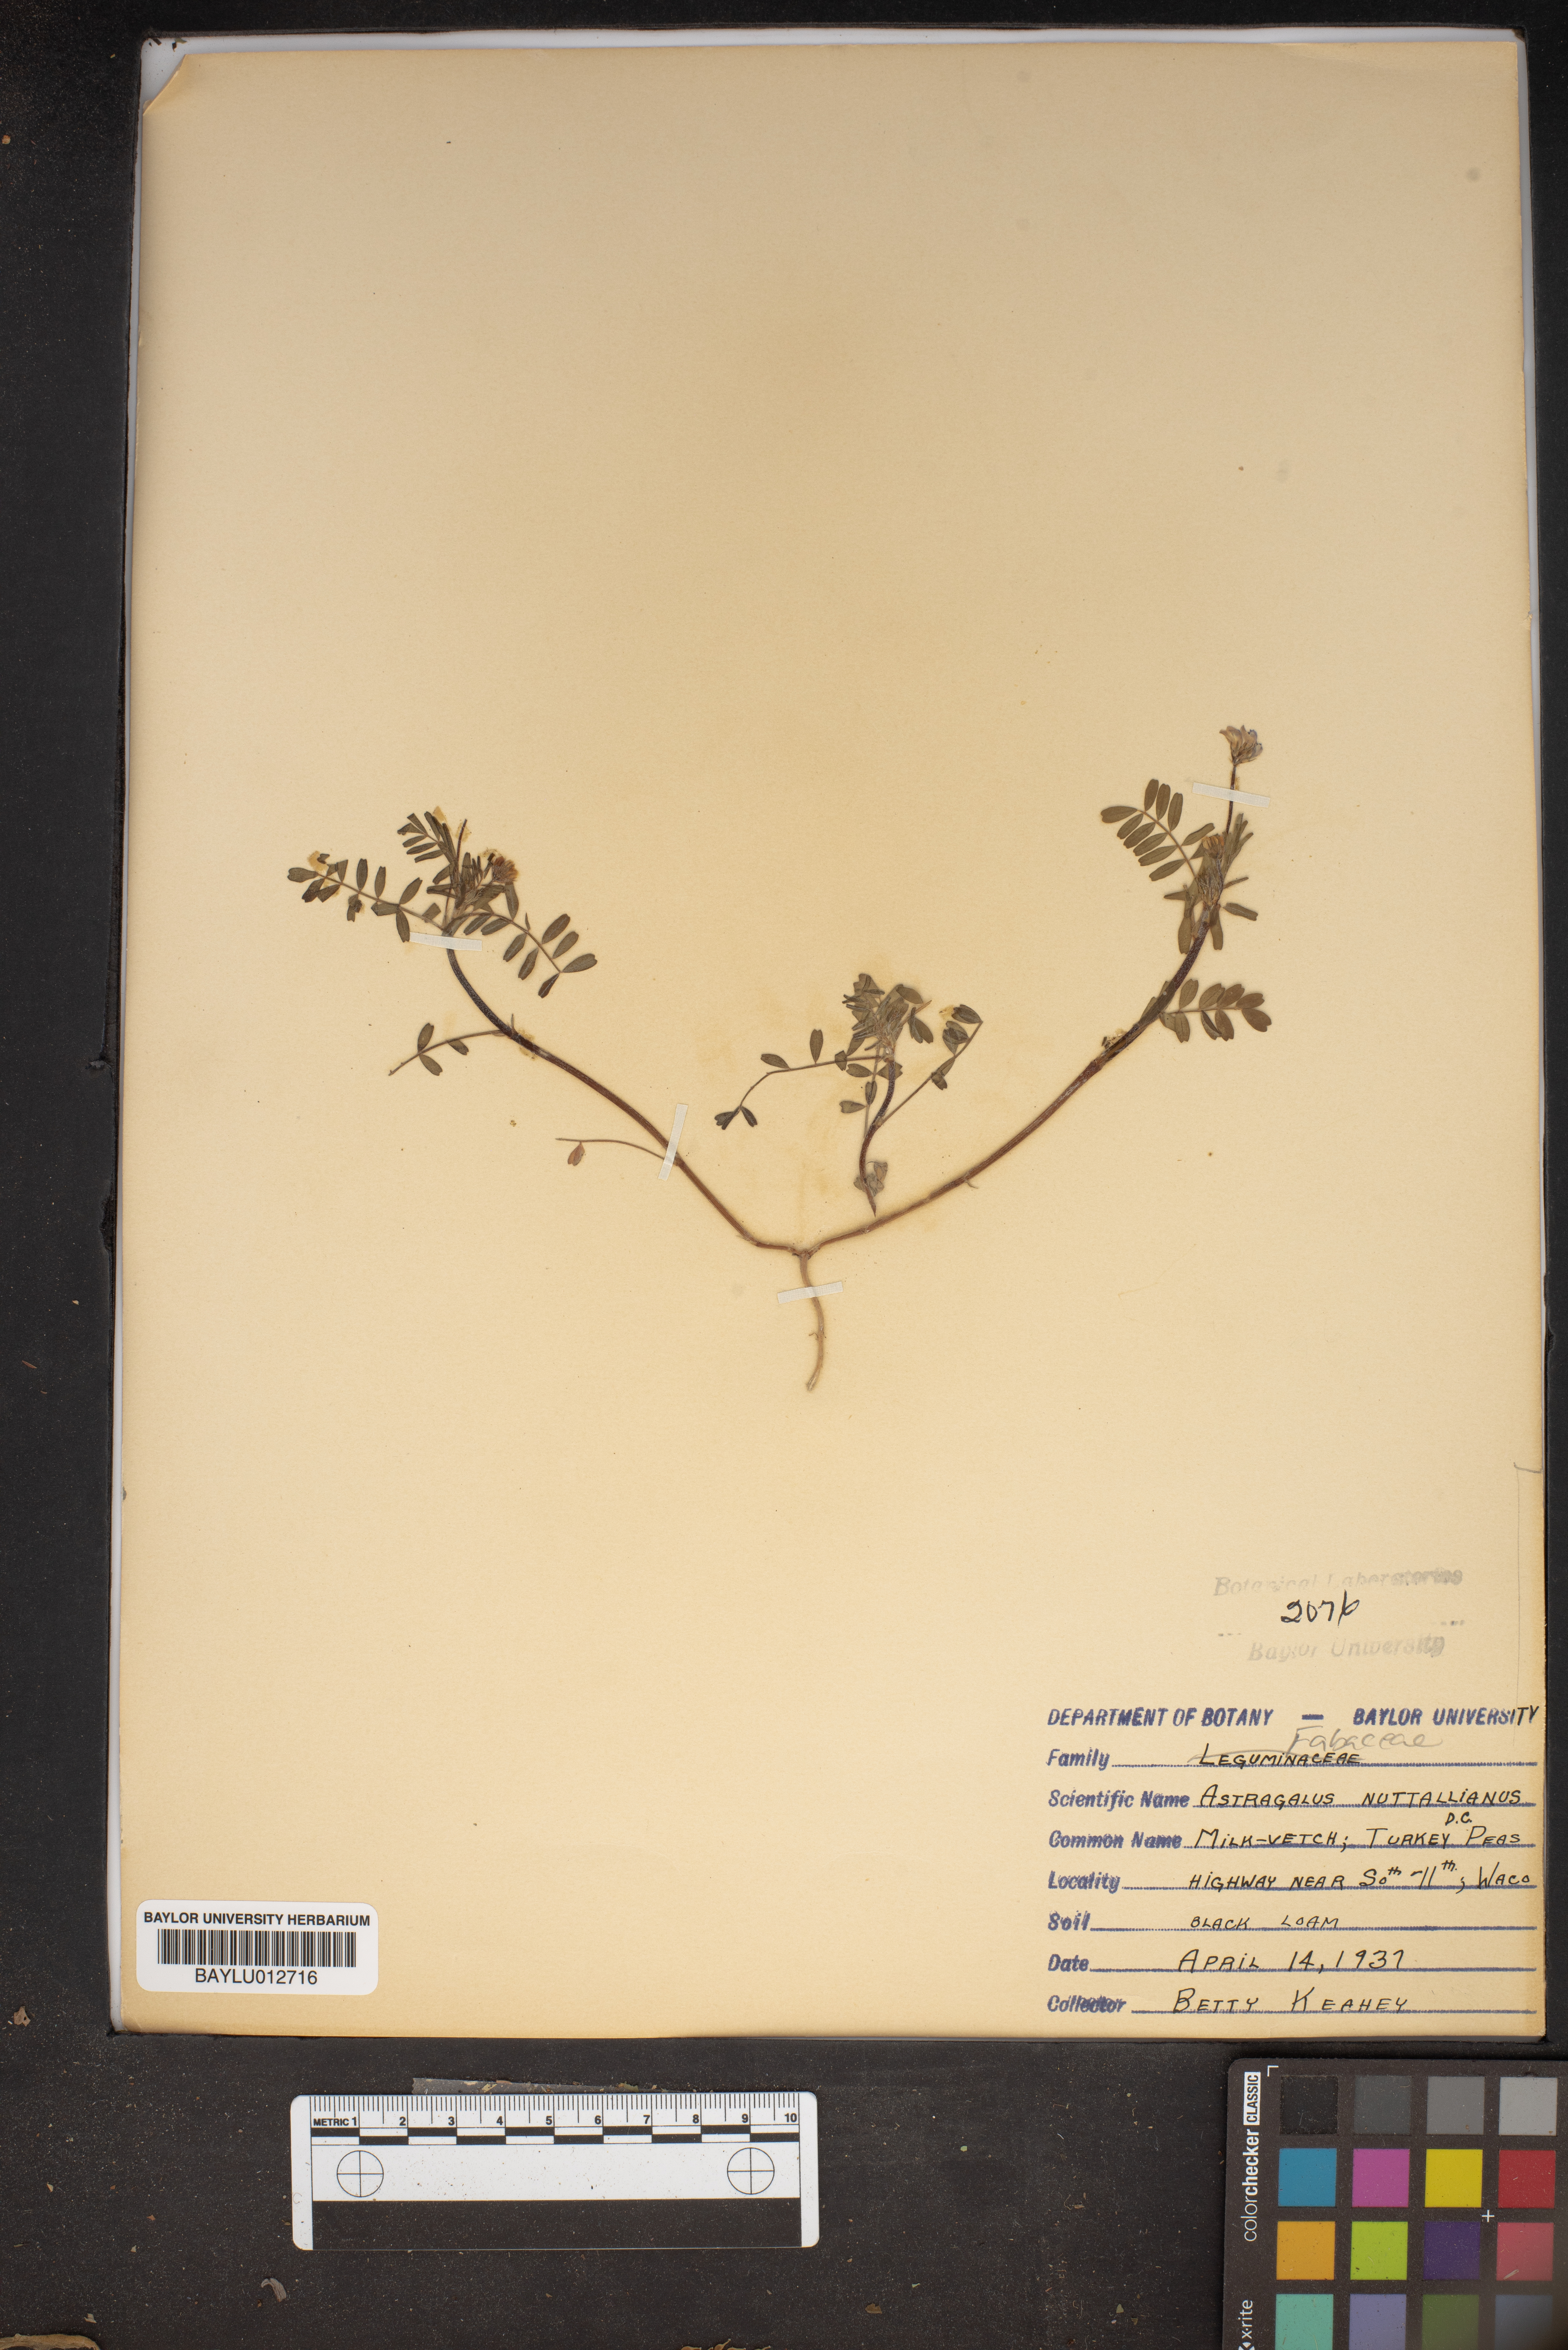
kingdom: Plantae
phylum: Tracheophyta
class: Magnoliopsida
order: Fabales
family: Fabaceae
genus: Astragalus
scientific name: Astragalus nuttallianus
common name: Smallflowered milkvetch
